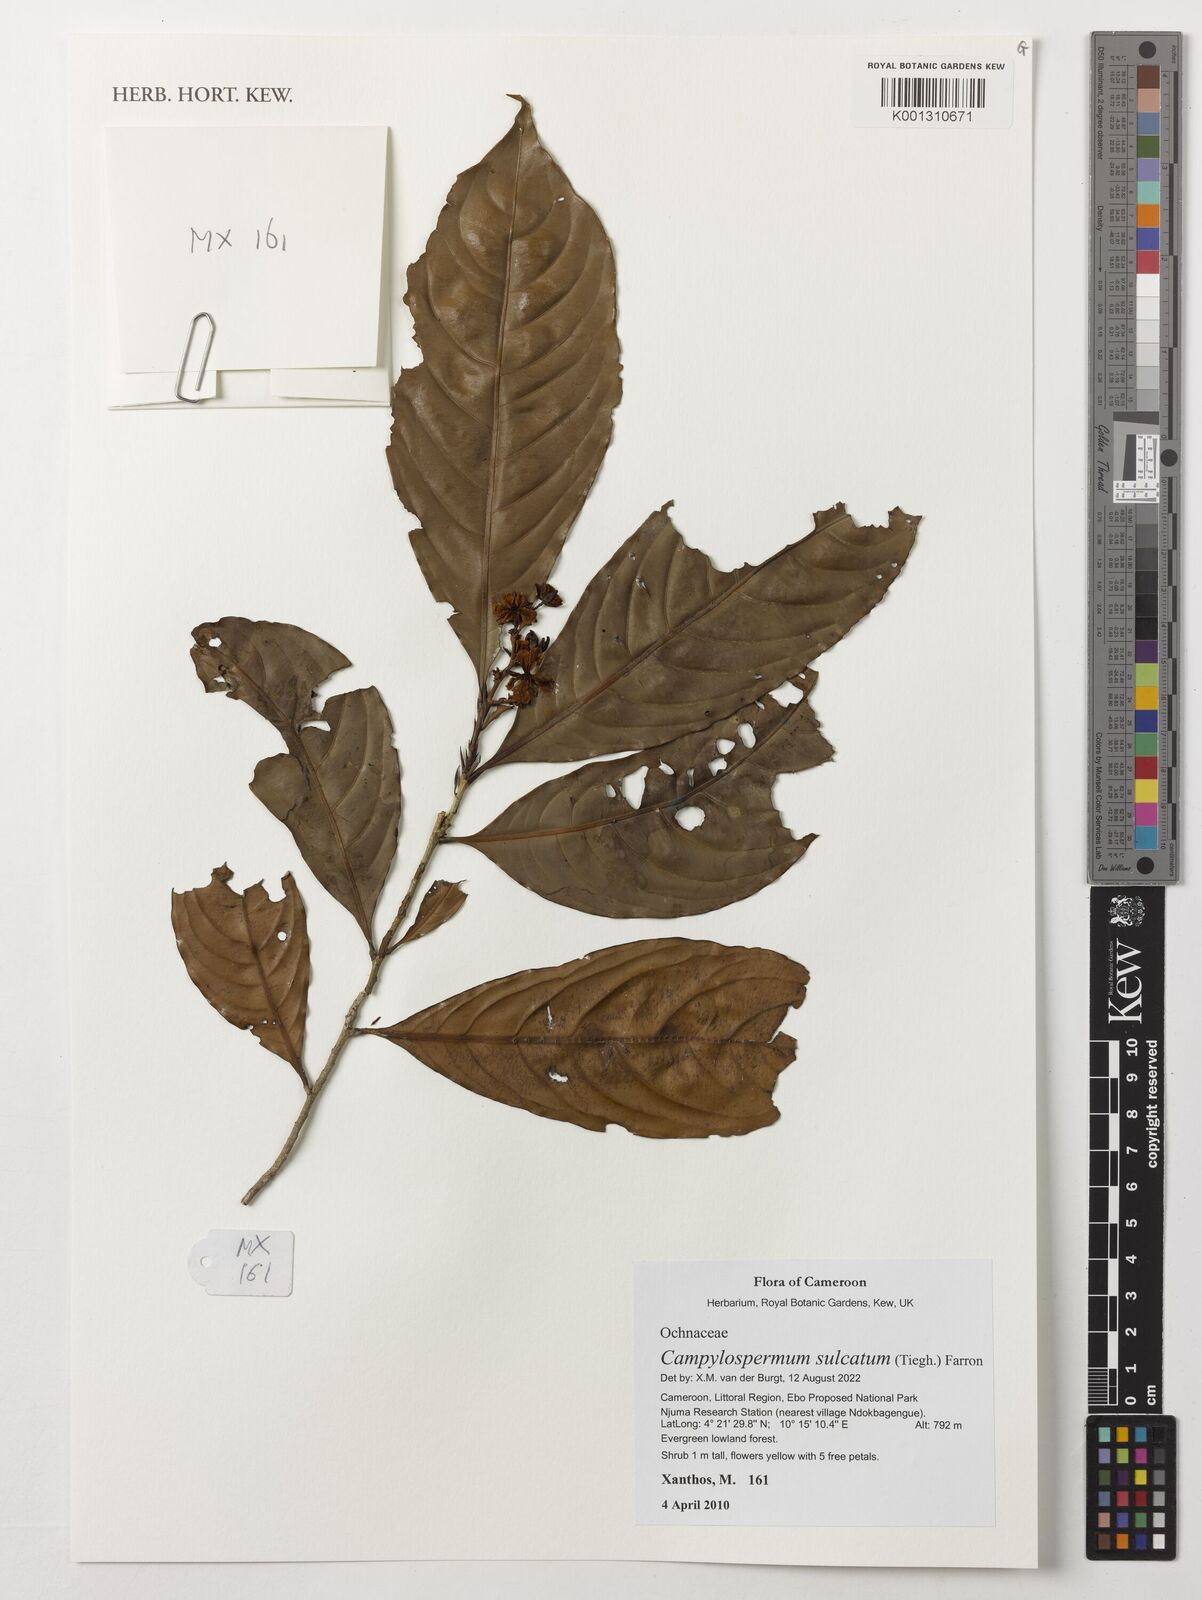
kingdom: Plantae
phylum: Tracheophyta
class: Magnoliopsida
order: Malpighiales
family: Ochnaceae
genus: Campylospermum
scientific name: Campylospermum sulcatum
